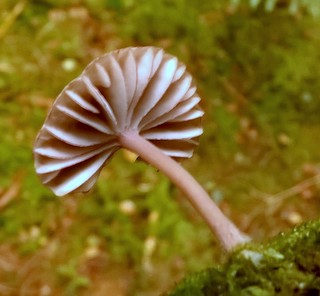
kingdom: Fungi
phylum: Basidiomycota
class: Agaricomycetes
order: Agaricales
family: Mycenaceae
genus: Mycena
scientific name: Mycena rubromarginata
